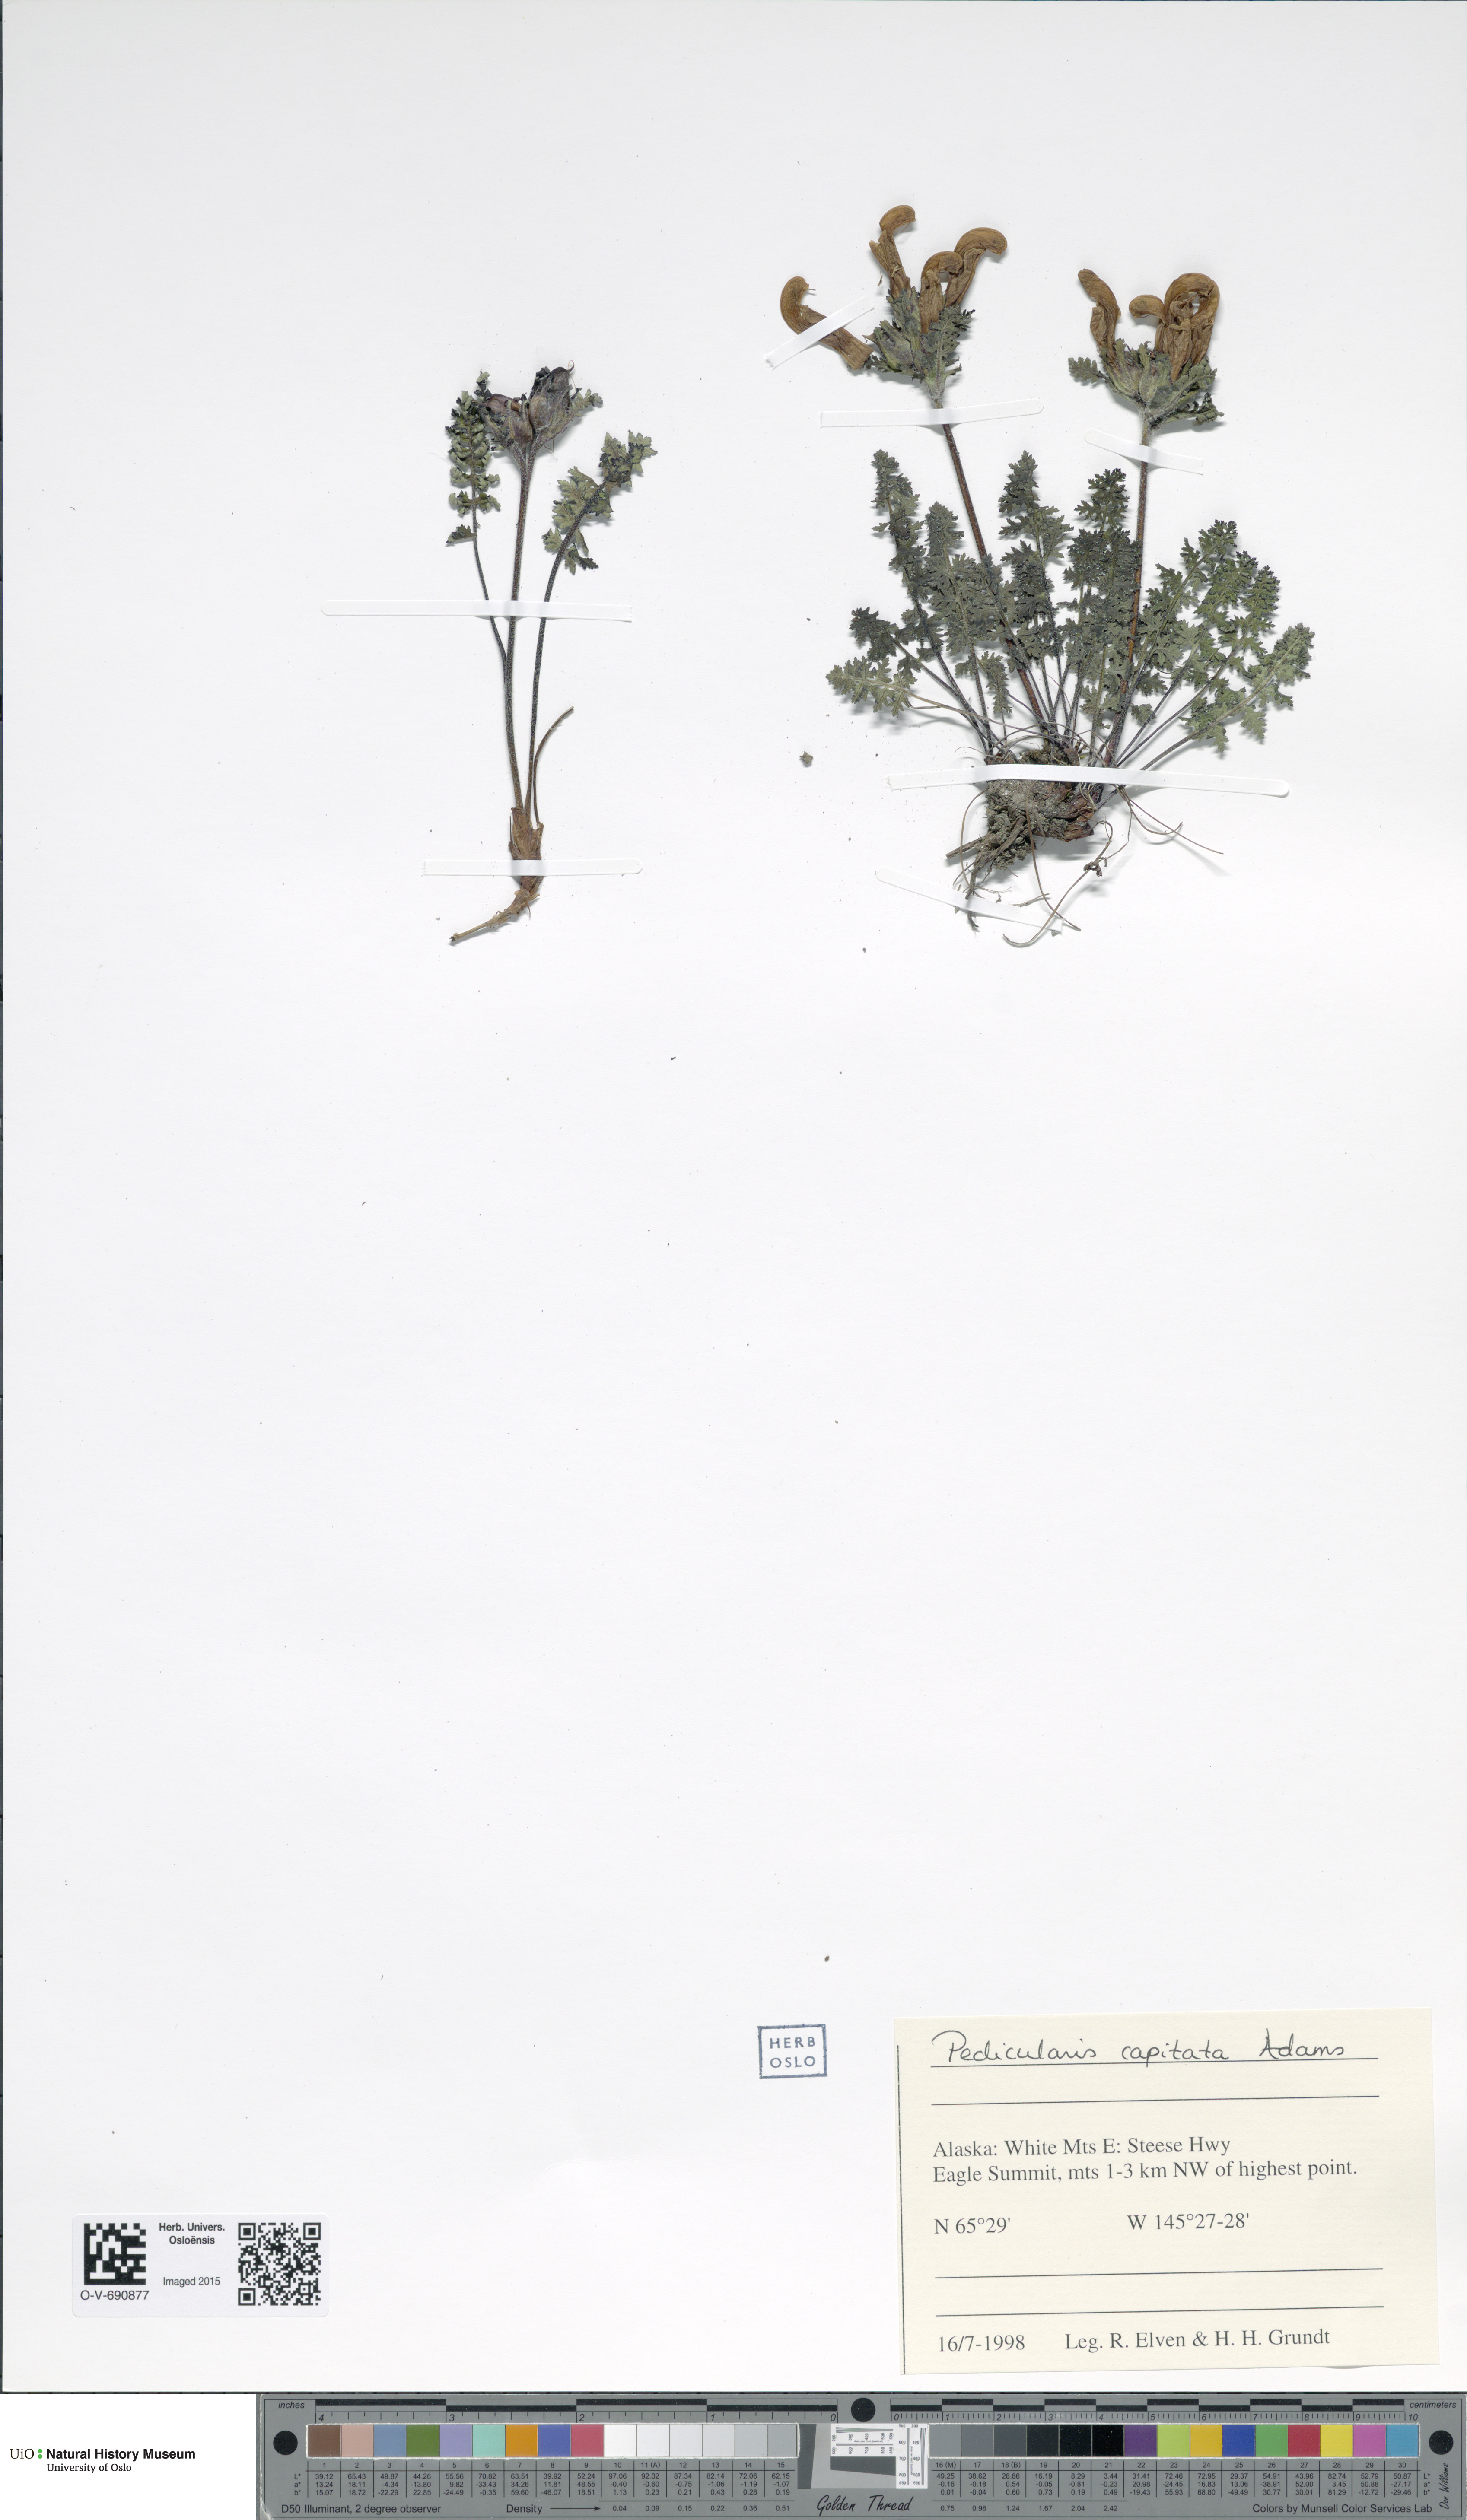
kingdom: Plantae
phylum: Tracheophyta
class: Magnoliopsida
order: Lamiales
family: Orobanchaceae
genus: Pedicularis
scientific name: Pedicularis capitata
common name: Capitate lousewort
